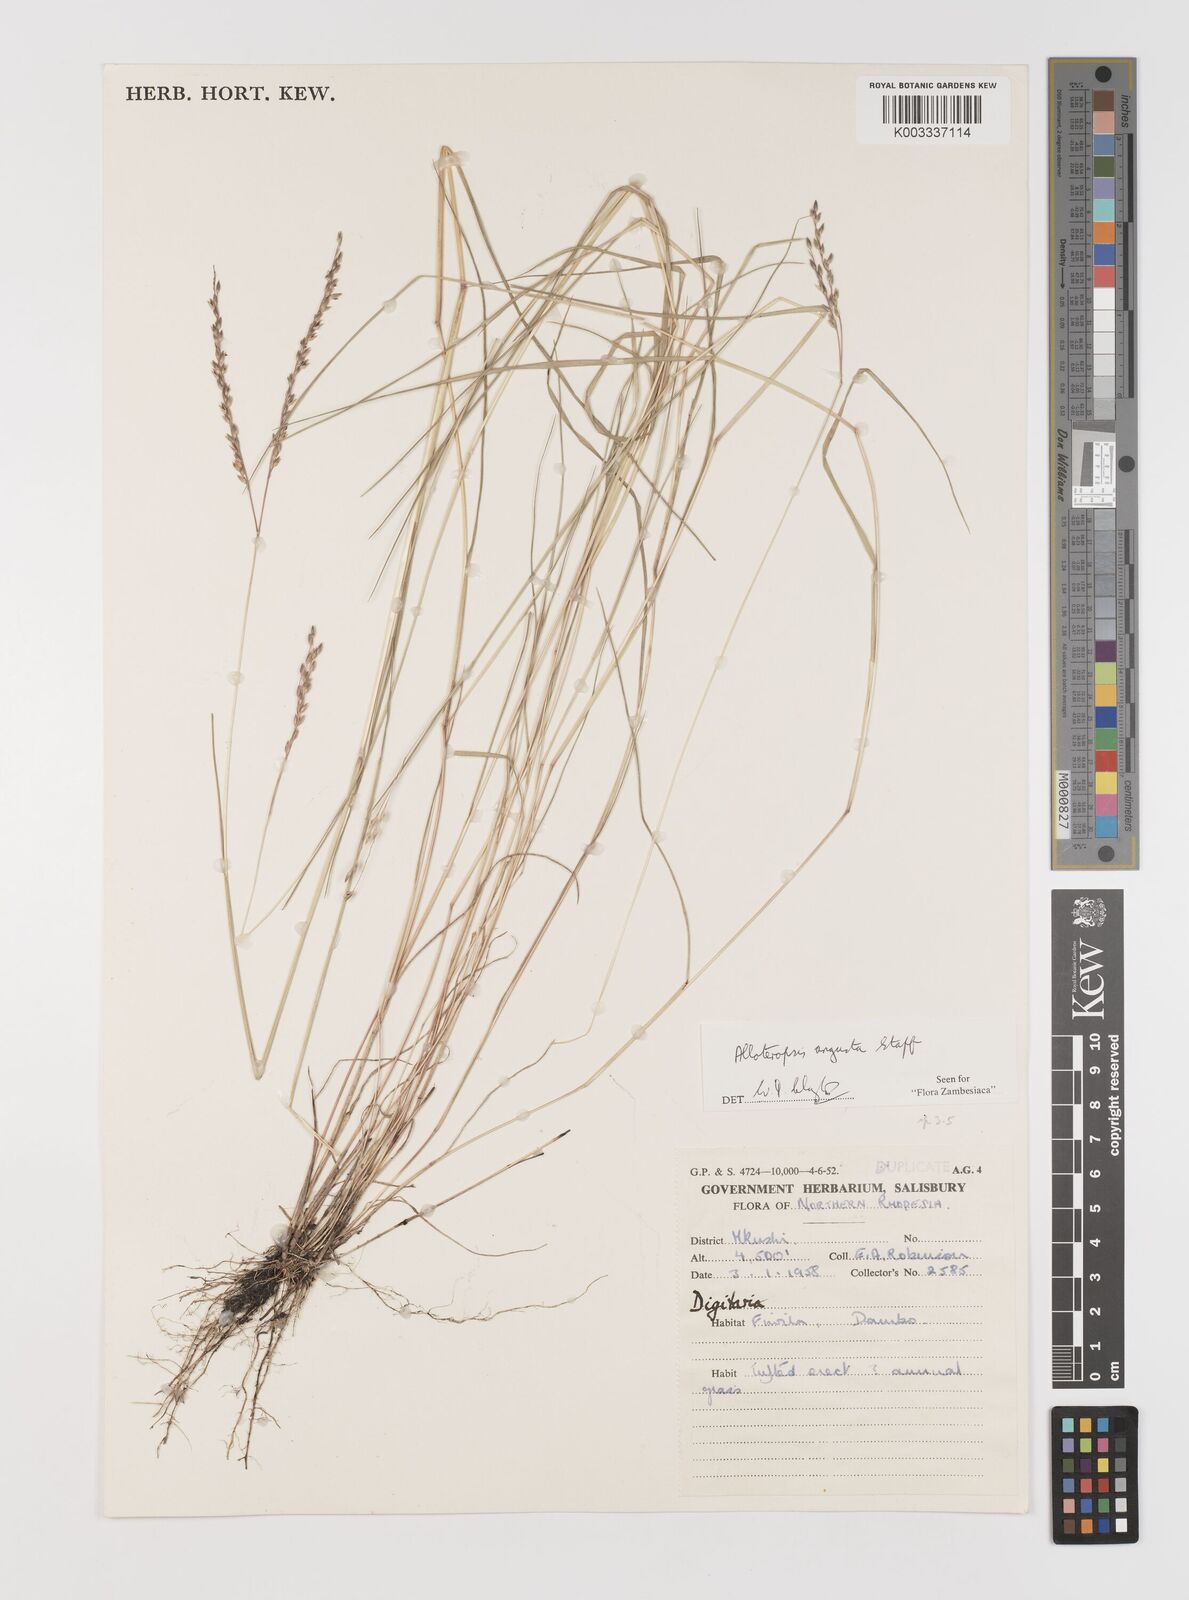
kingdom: Plantae
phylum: Tracheophyta
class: Liliopsida
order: Poales
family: Poaceae
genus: Alloteropsis
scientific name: Alloteropsis angusta
